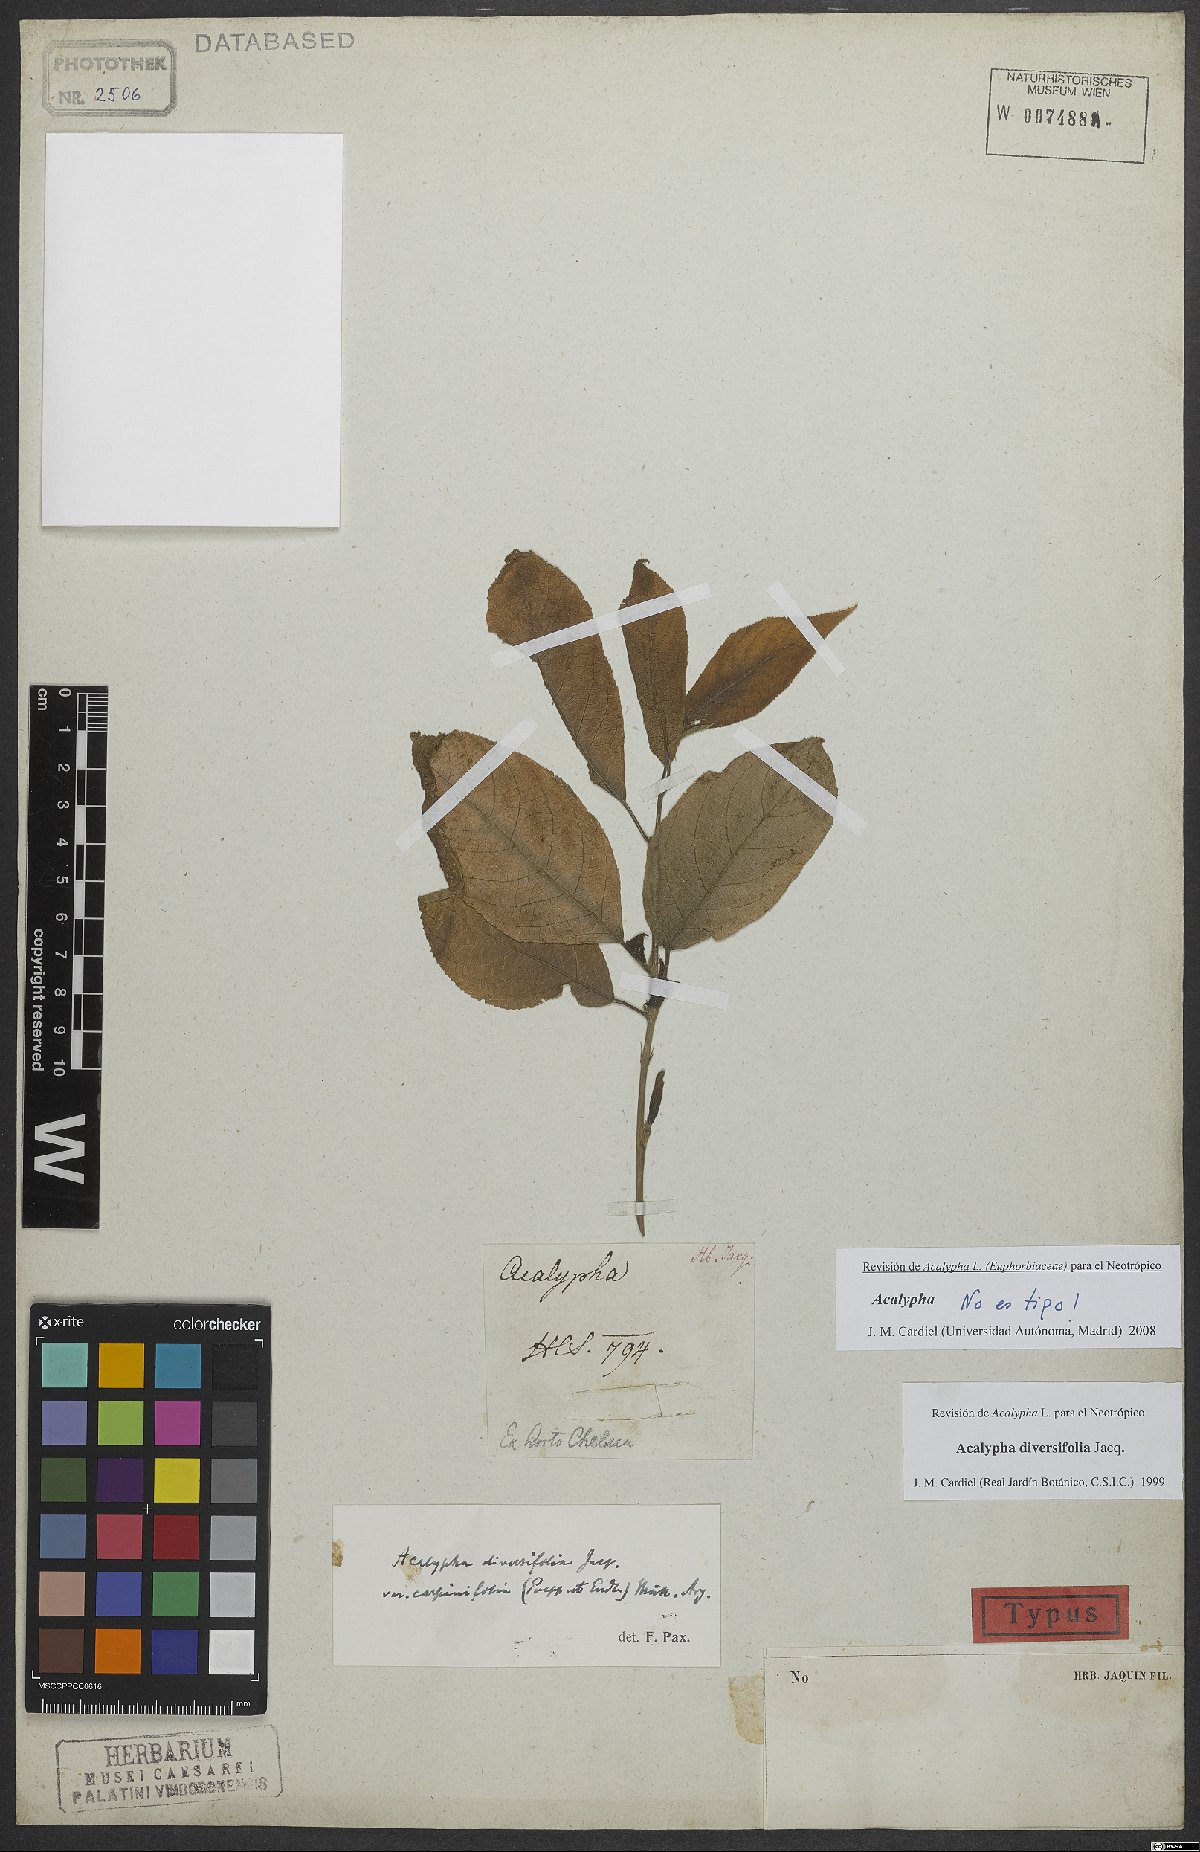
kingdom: Plantae
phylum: Tracheophyta
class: Magnoliopsida
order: Malpighiales
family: Euphorbiaceae
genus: Acalypha
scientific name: Acalypha diversifolia
